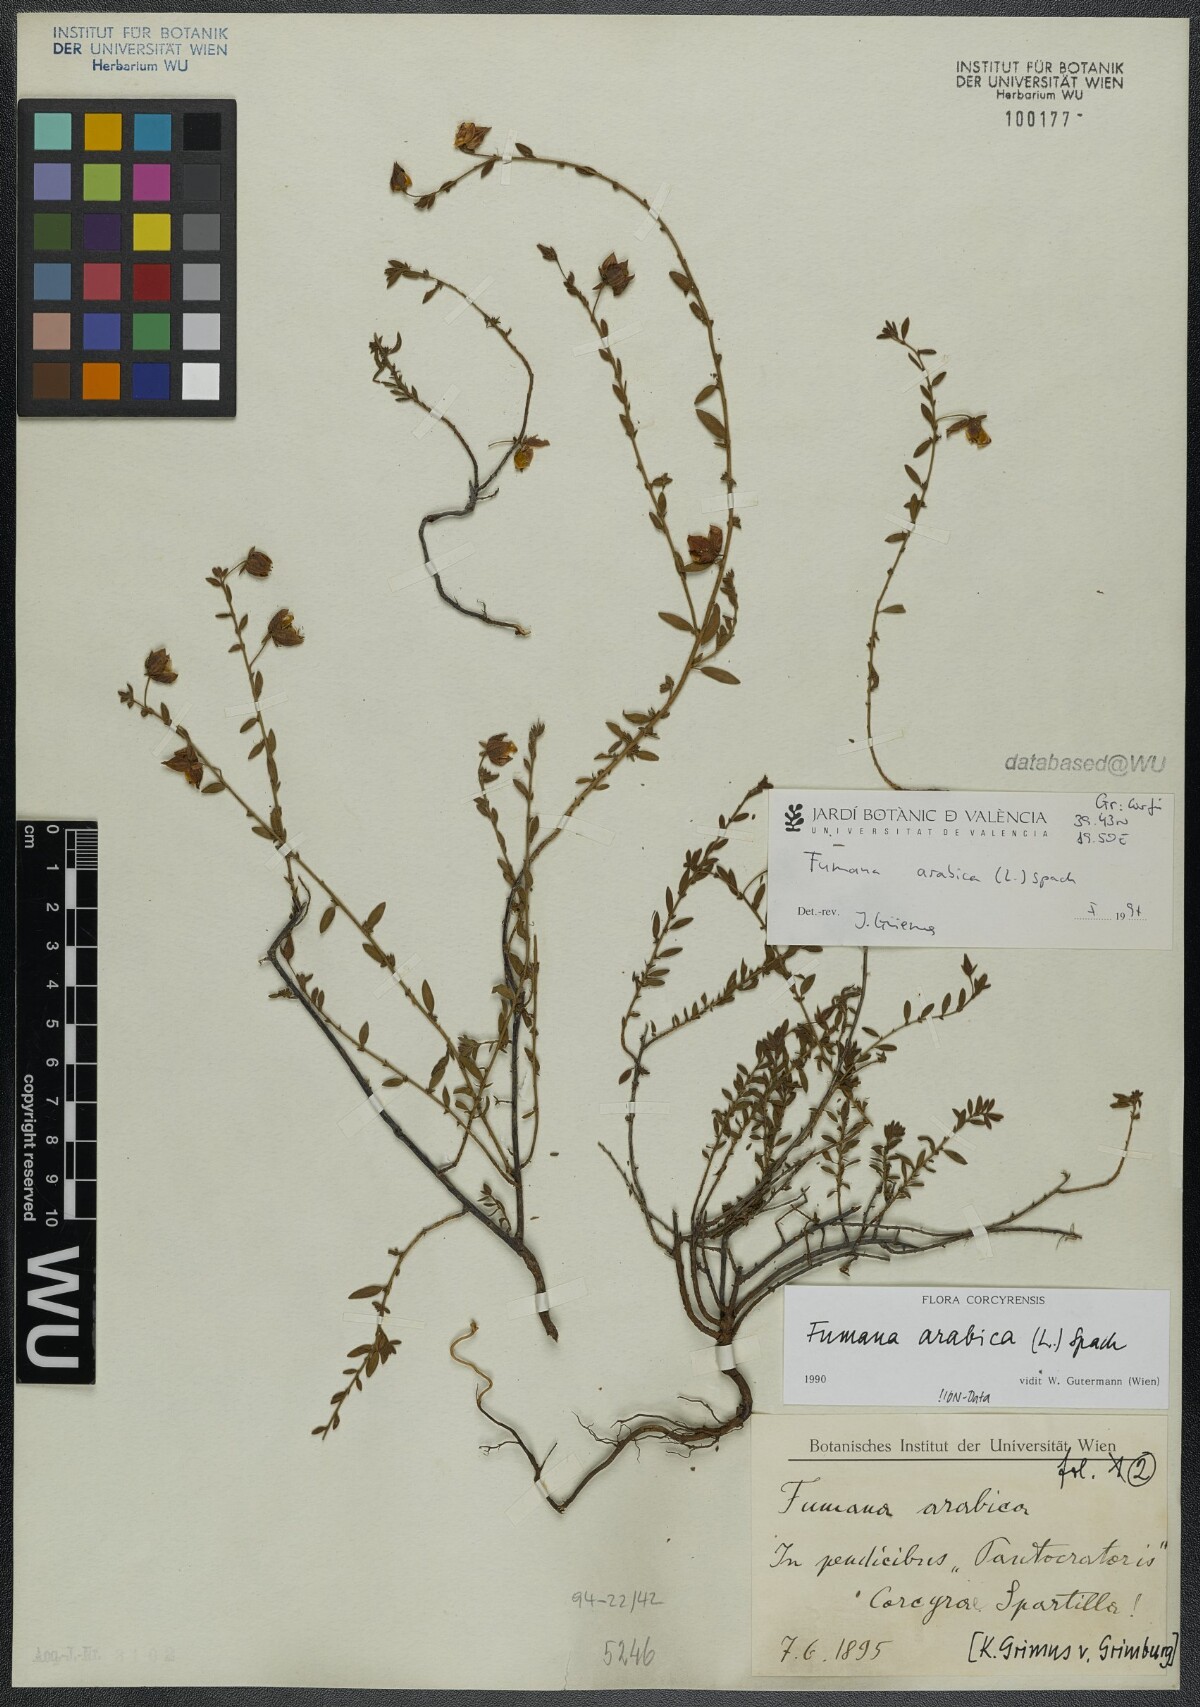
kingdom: Plantae
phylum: Tracheophyta
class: Magnoliopsida
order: Malvales
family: Cistaceae
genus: Fumana
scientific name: Fumana arabica
